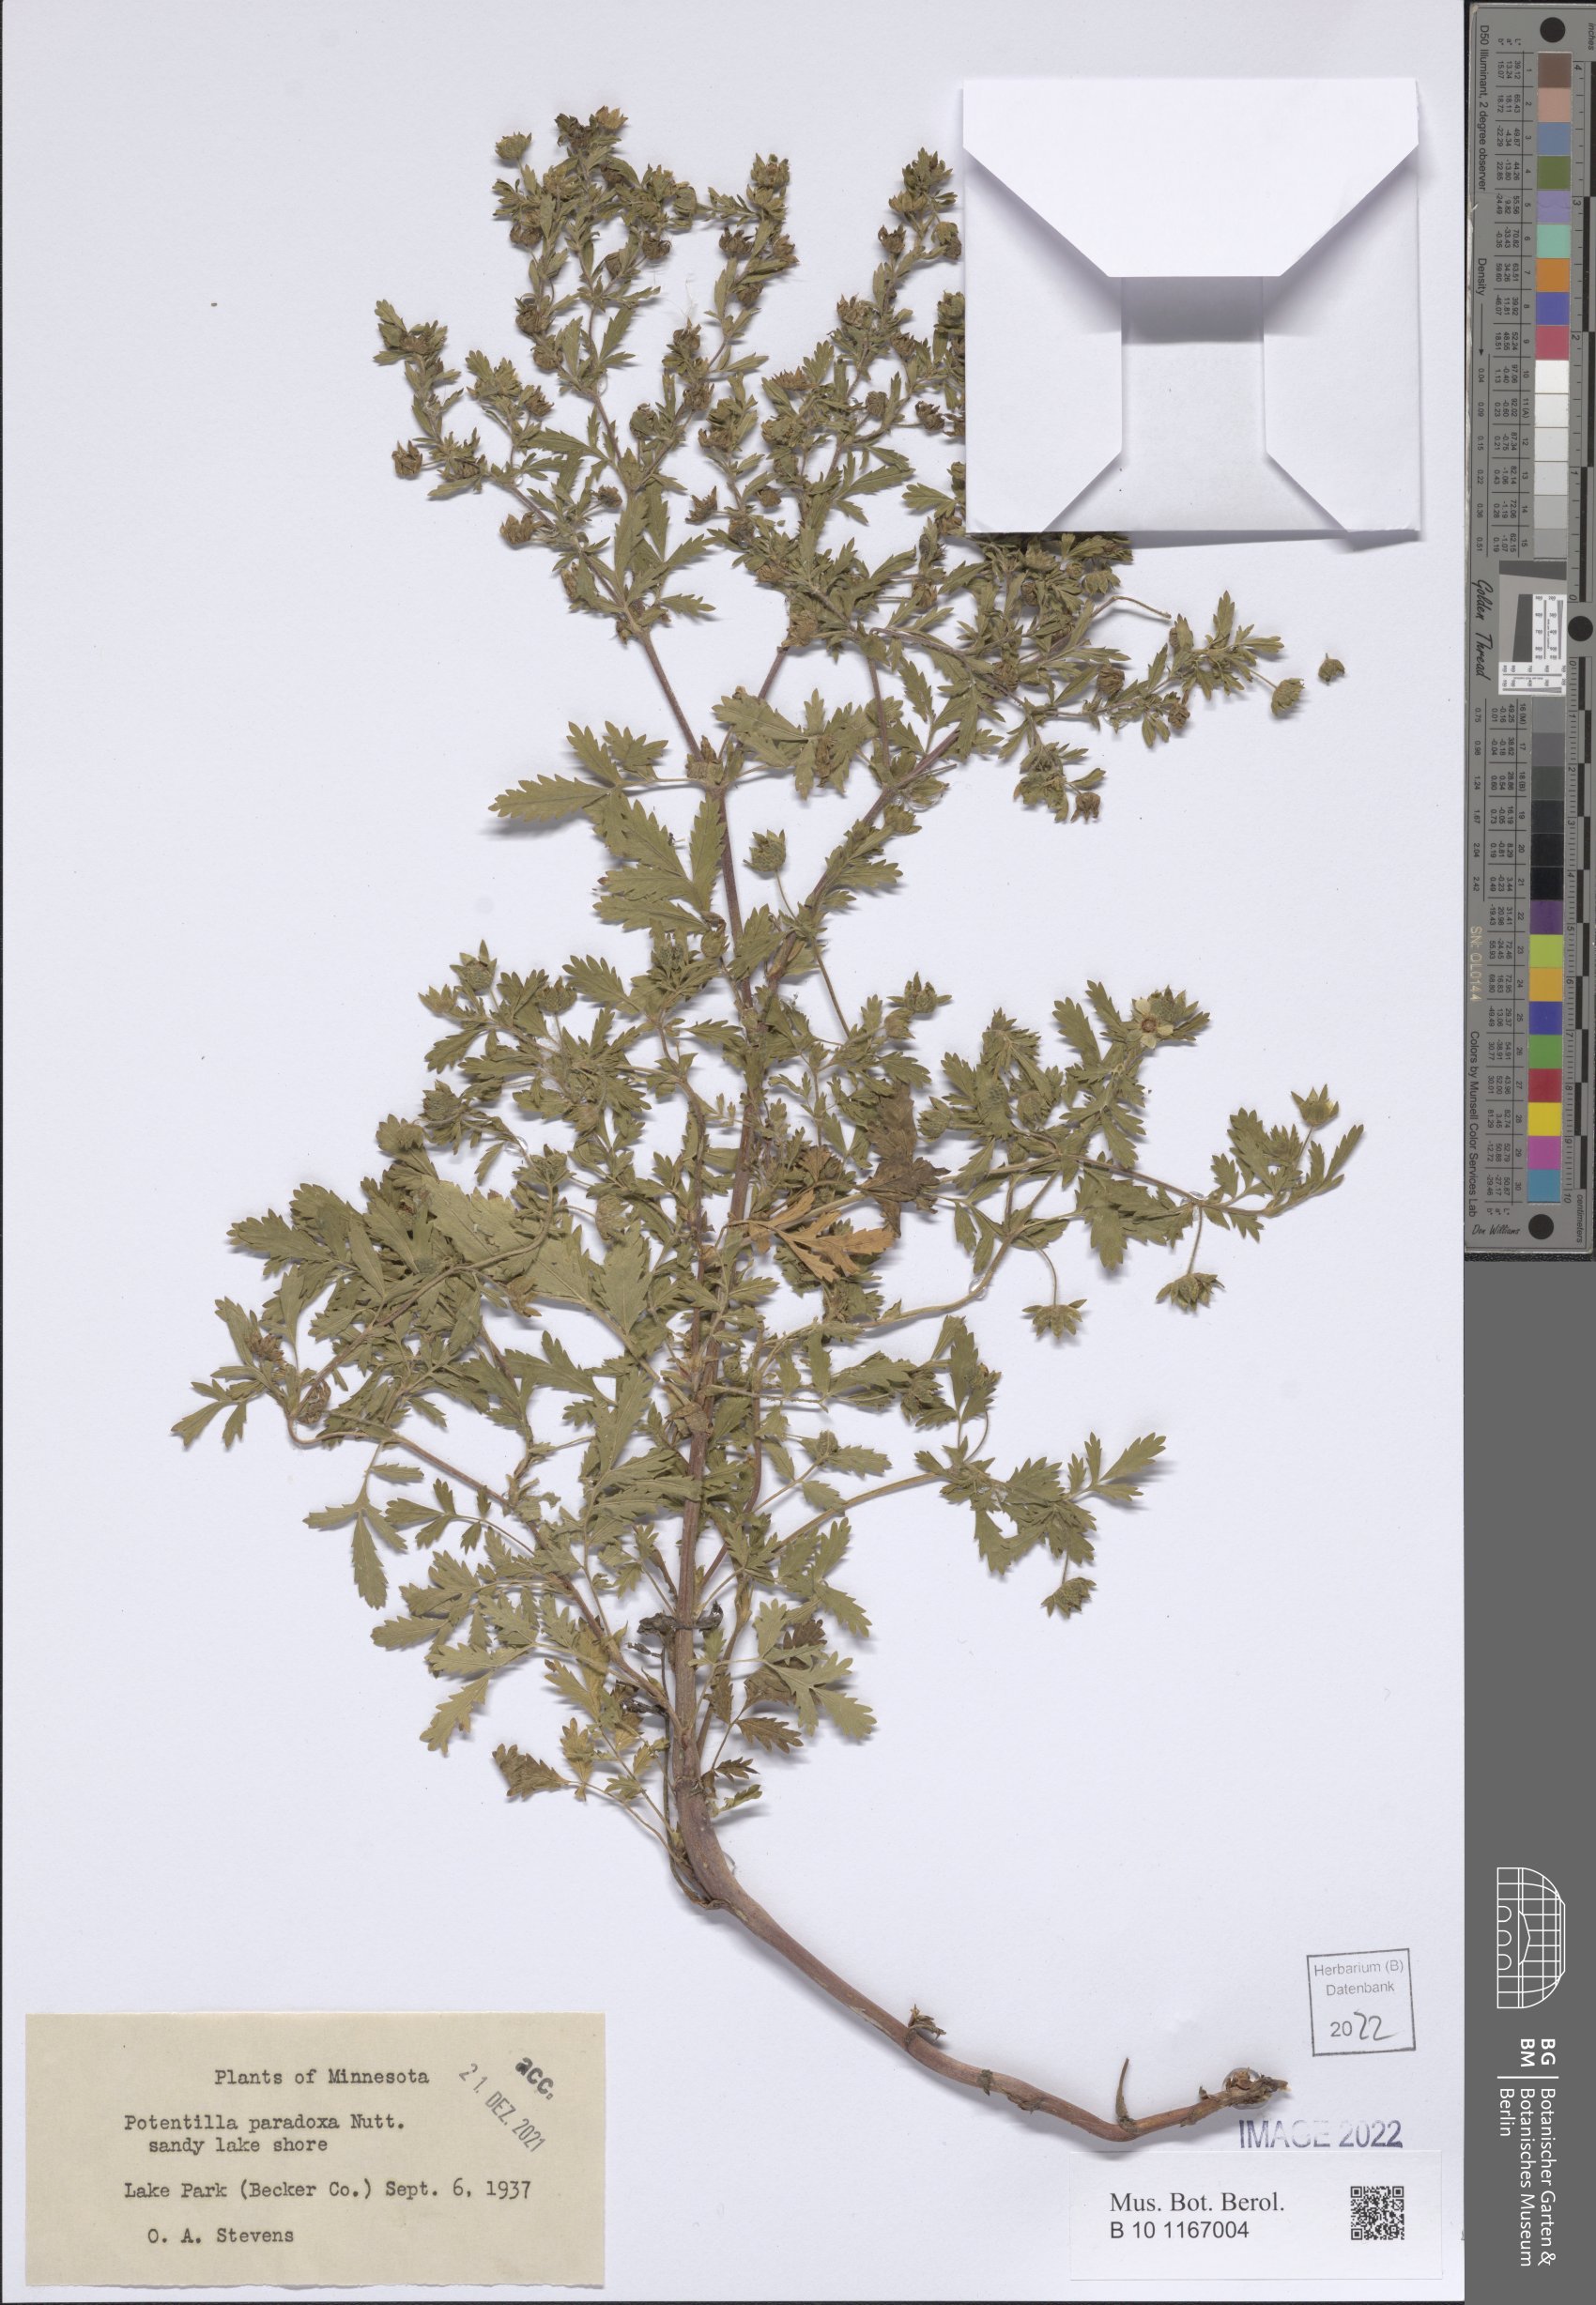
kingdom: Plantae
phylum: Tracheophyta
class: Magnoliopsida
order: Rosales
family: Rosaceae
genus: Potentilla
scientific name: Potentilla supina
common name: Prostrate cinquefoil
